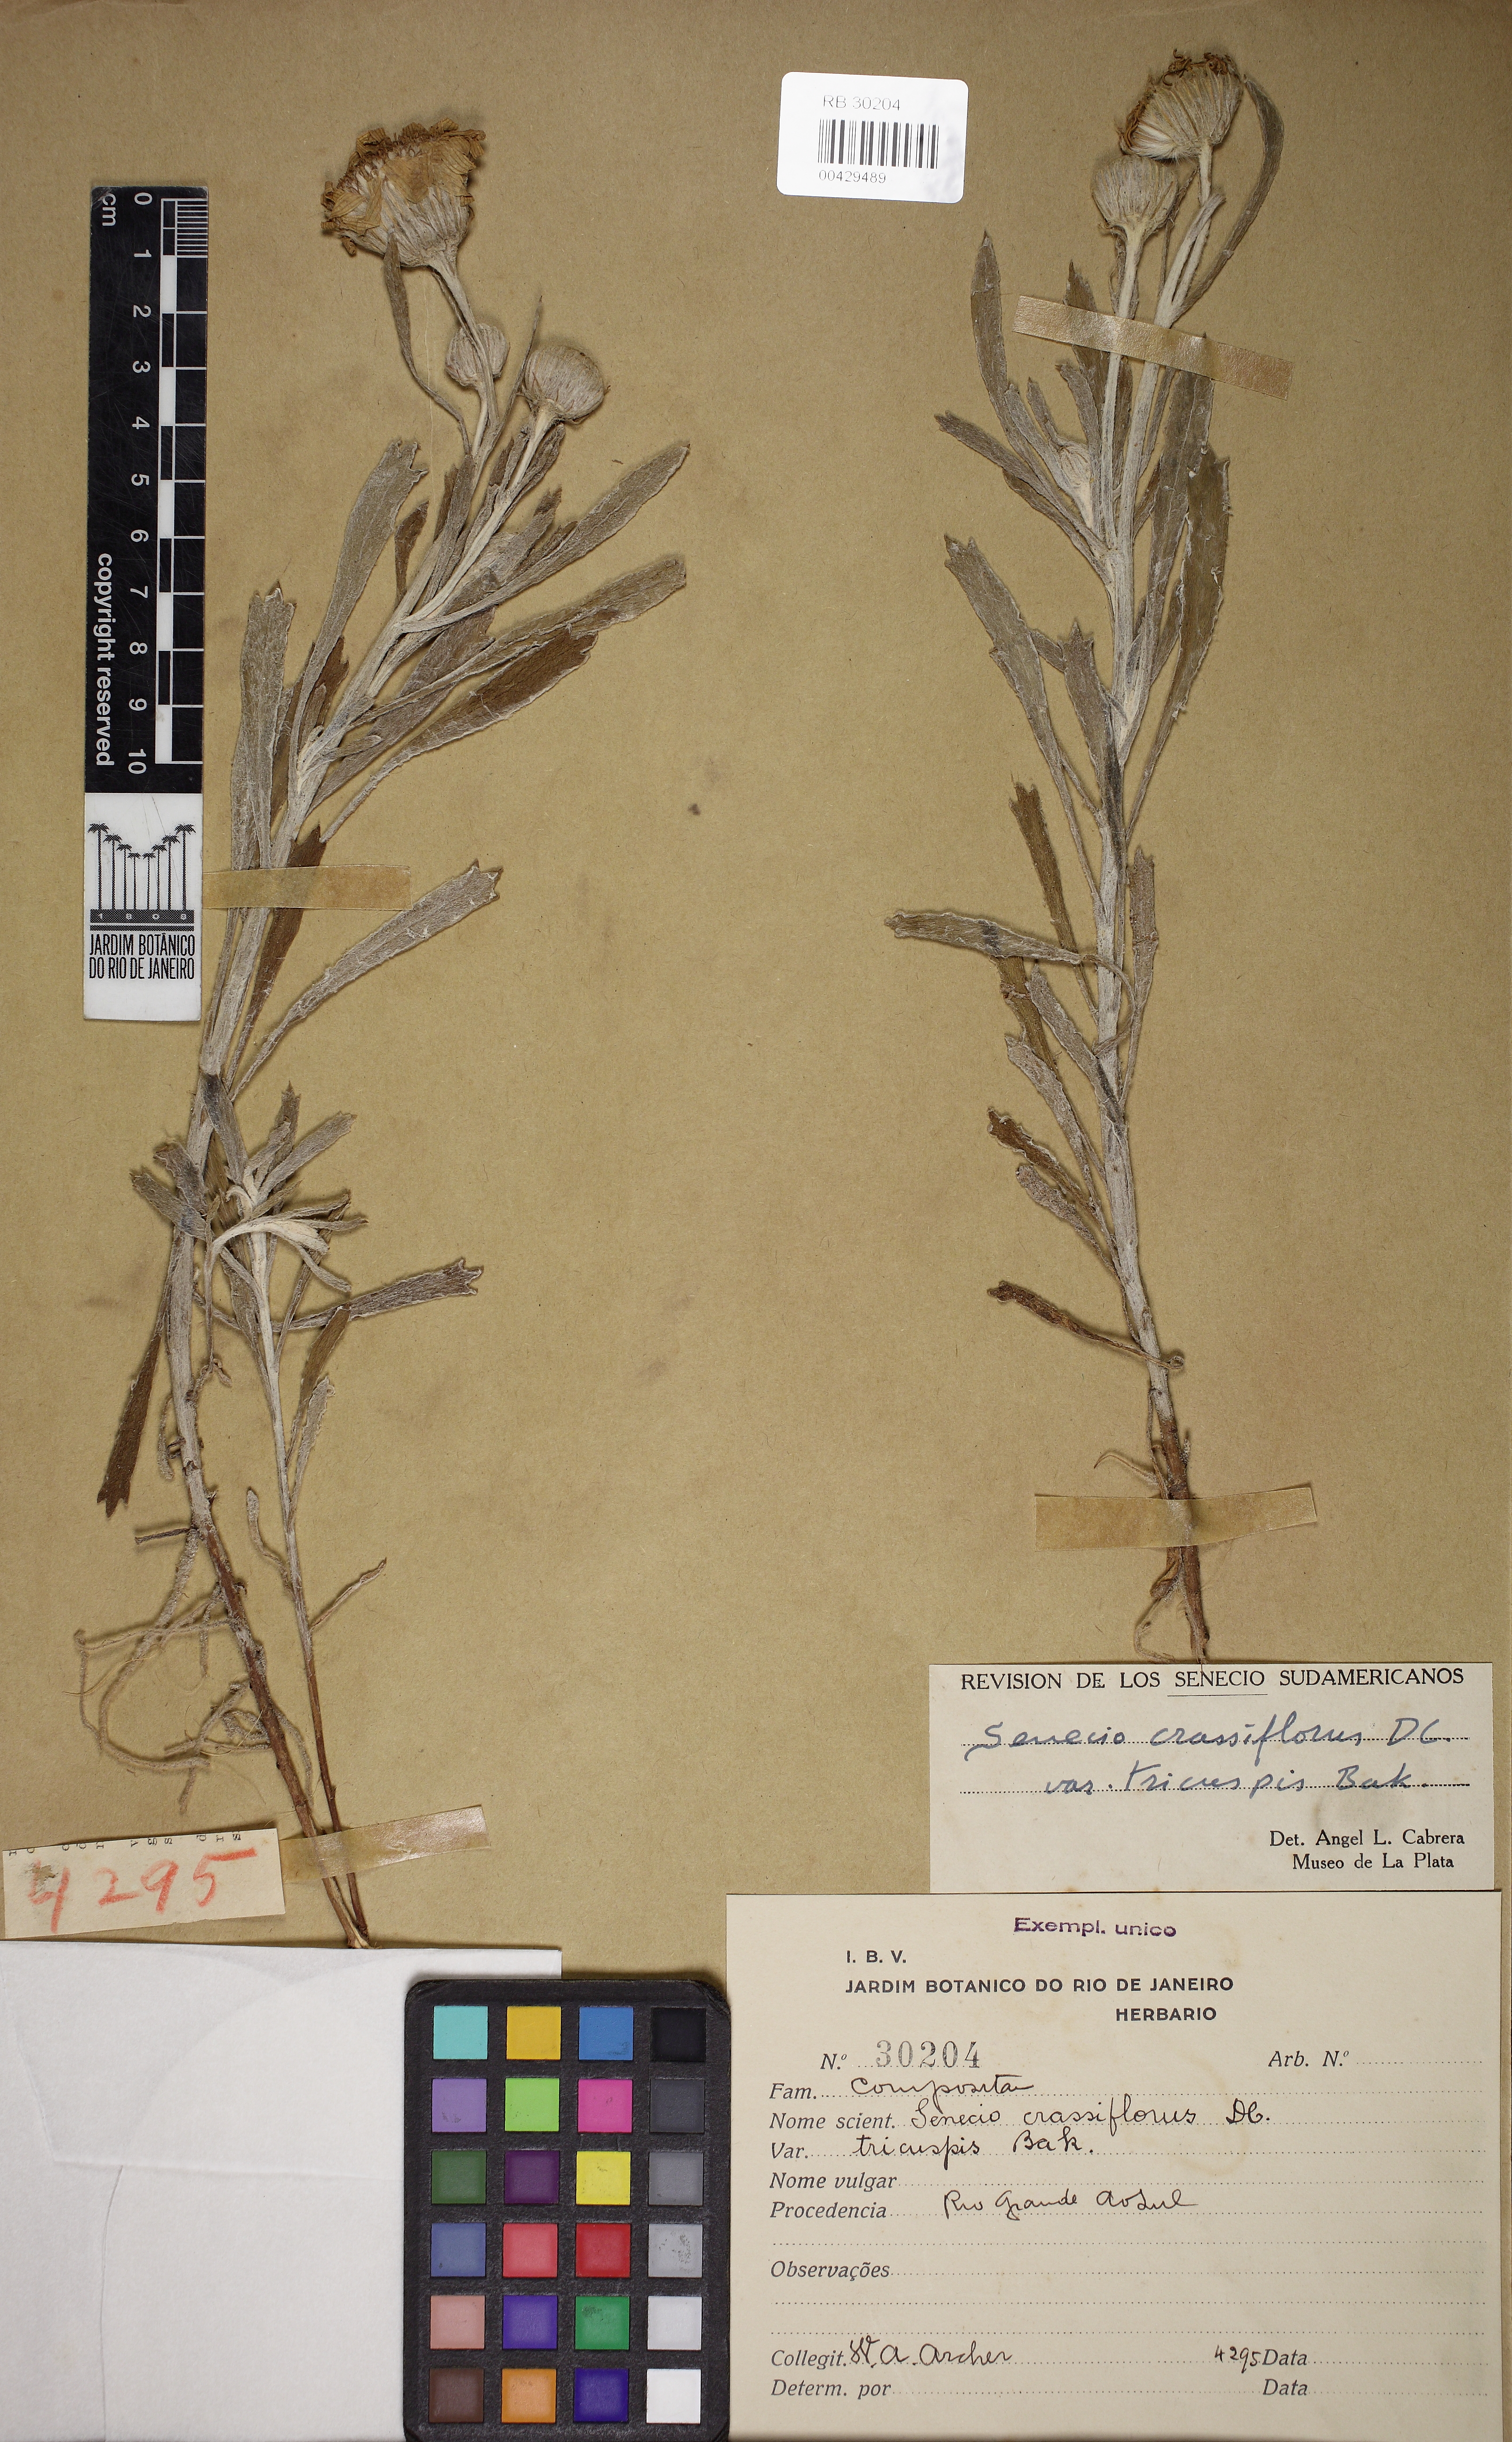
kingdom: Plantae
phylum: Tracheophyta
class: Magnoliopsida
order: Asterales
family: Asteraceae
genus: Senecio
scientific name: Senecio crassiflorus
